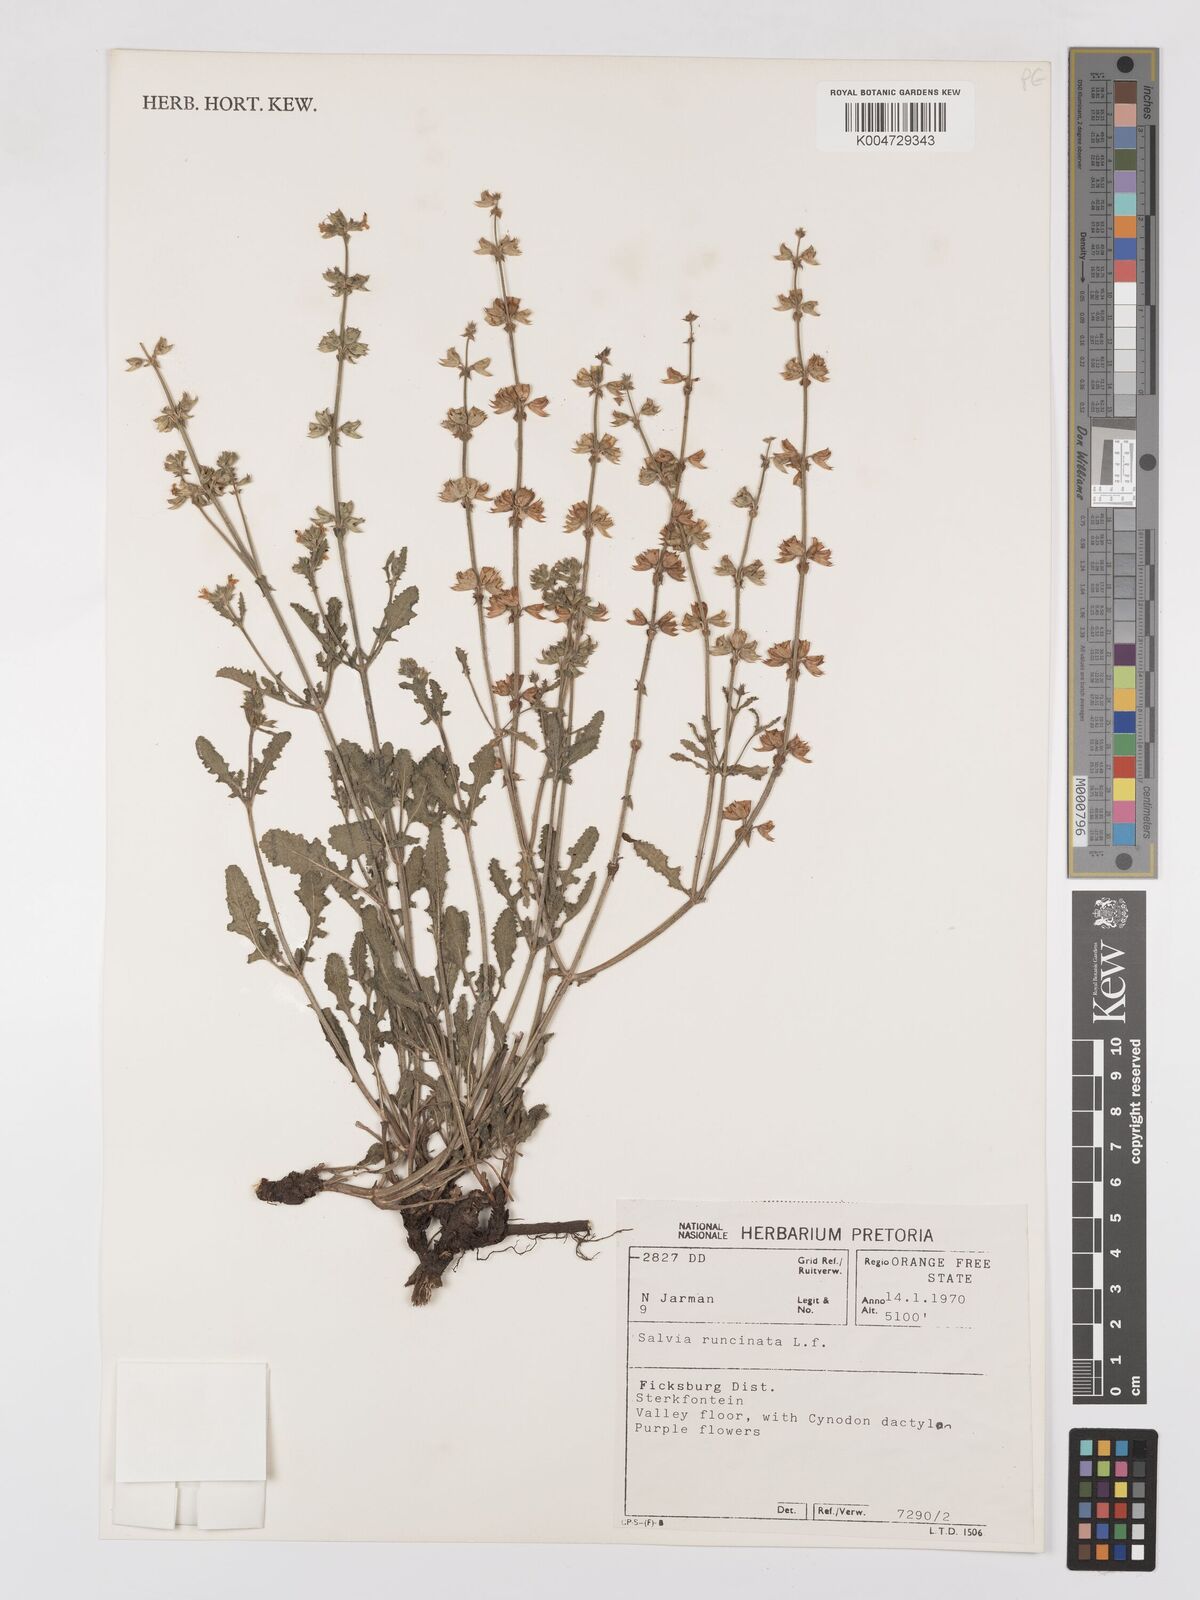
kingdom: Plantae
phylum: Tracheophyta
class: Magnoliopsida
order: Lamiales
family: Lamiaceae
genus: Salvia
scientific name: Salvia runcinata
